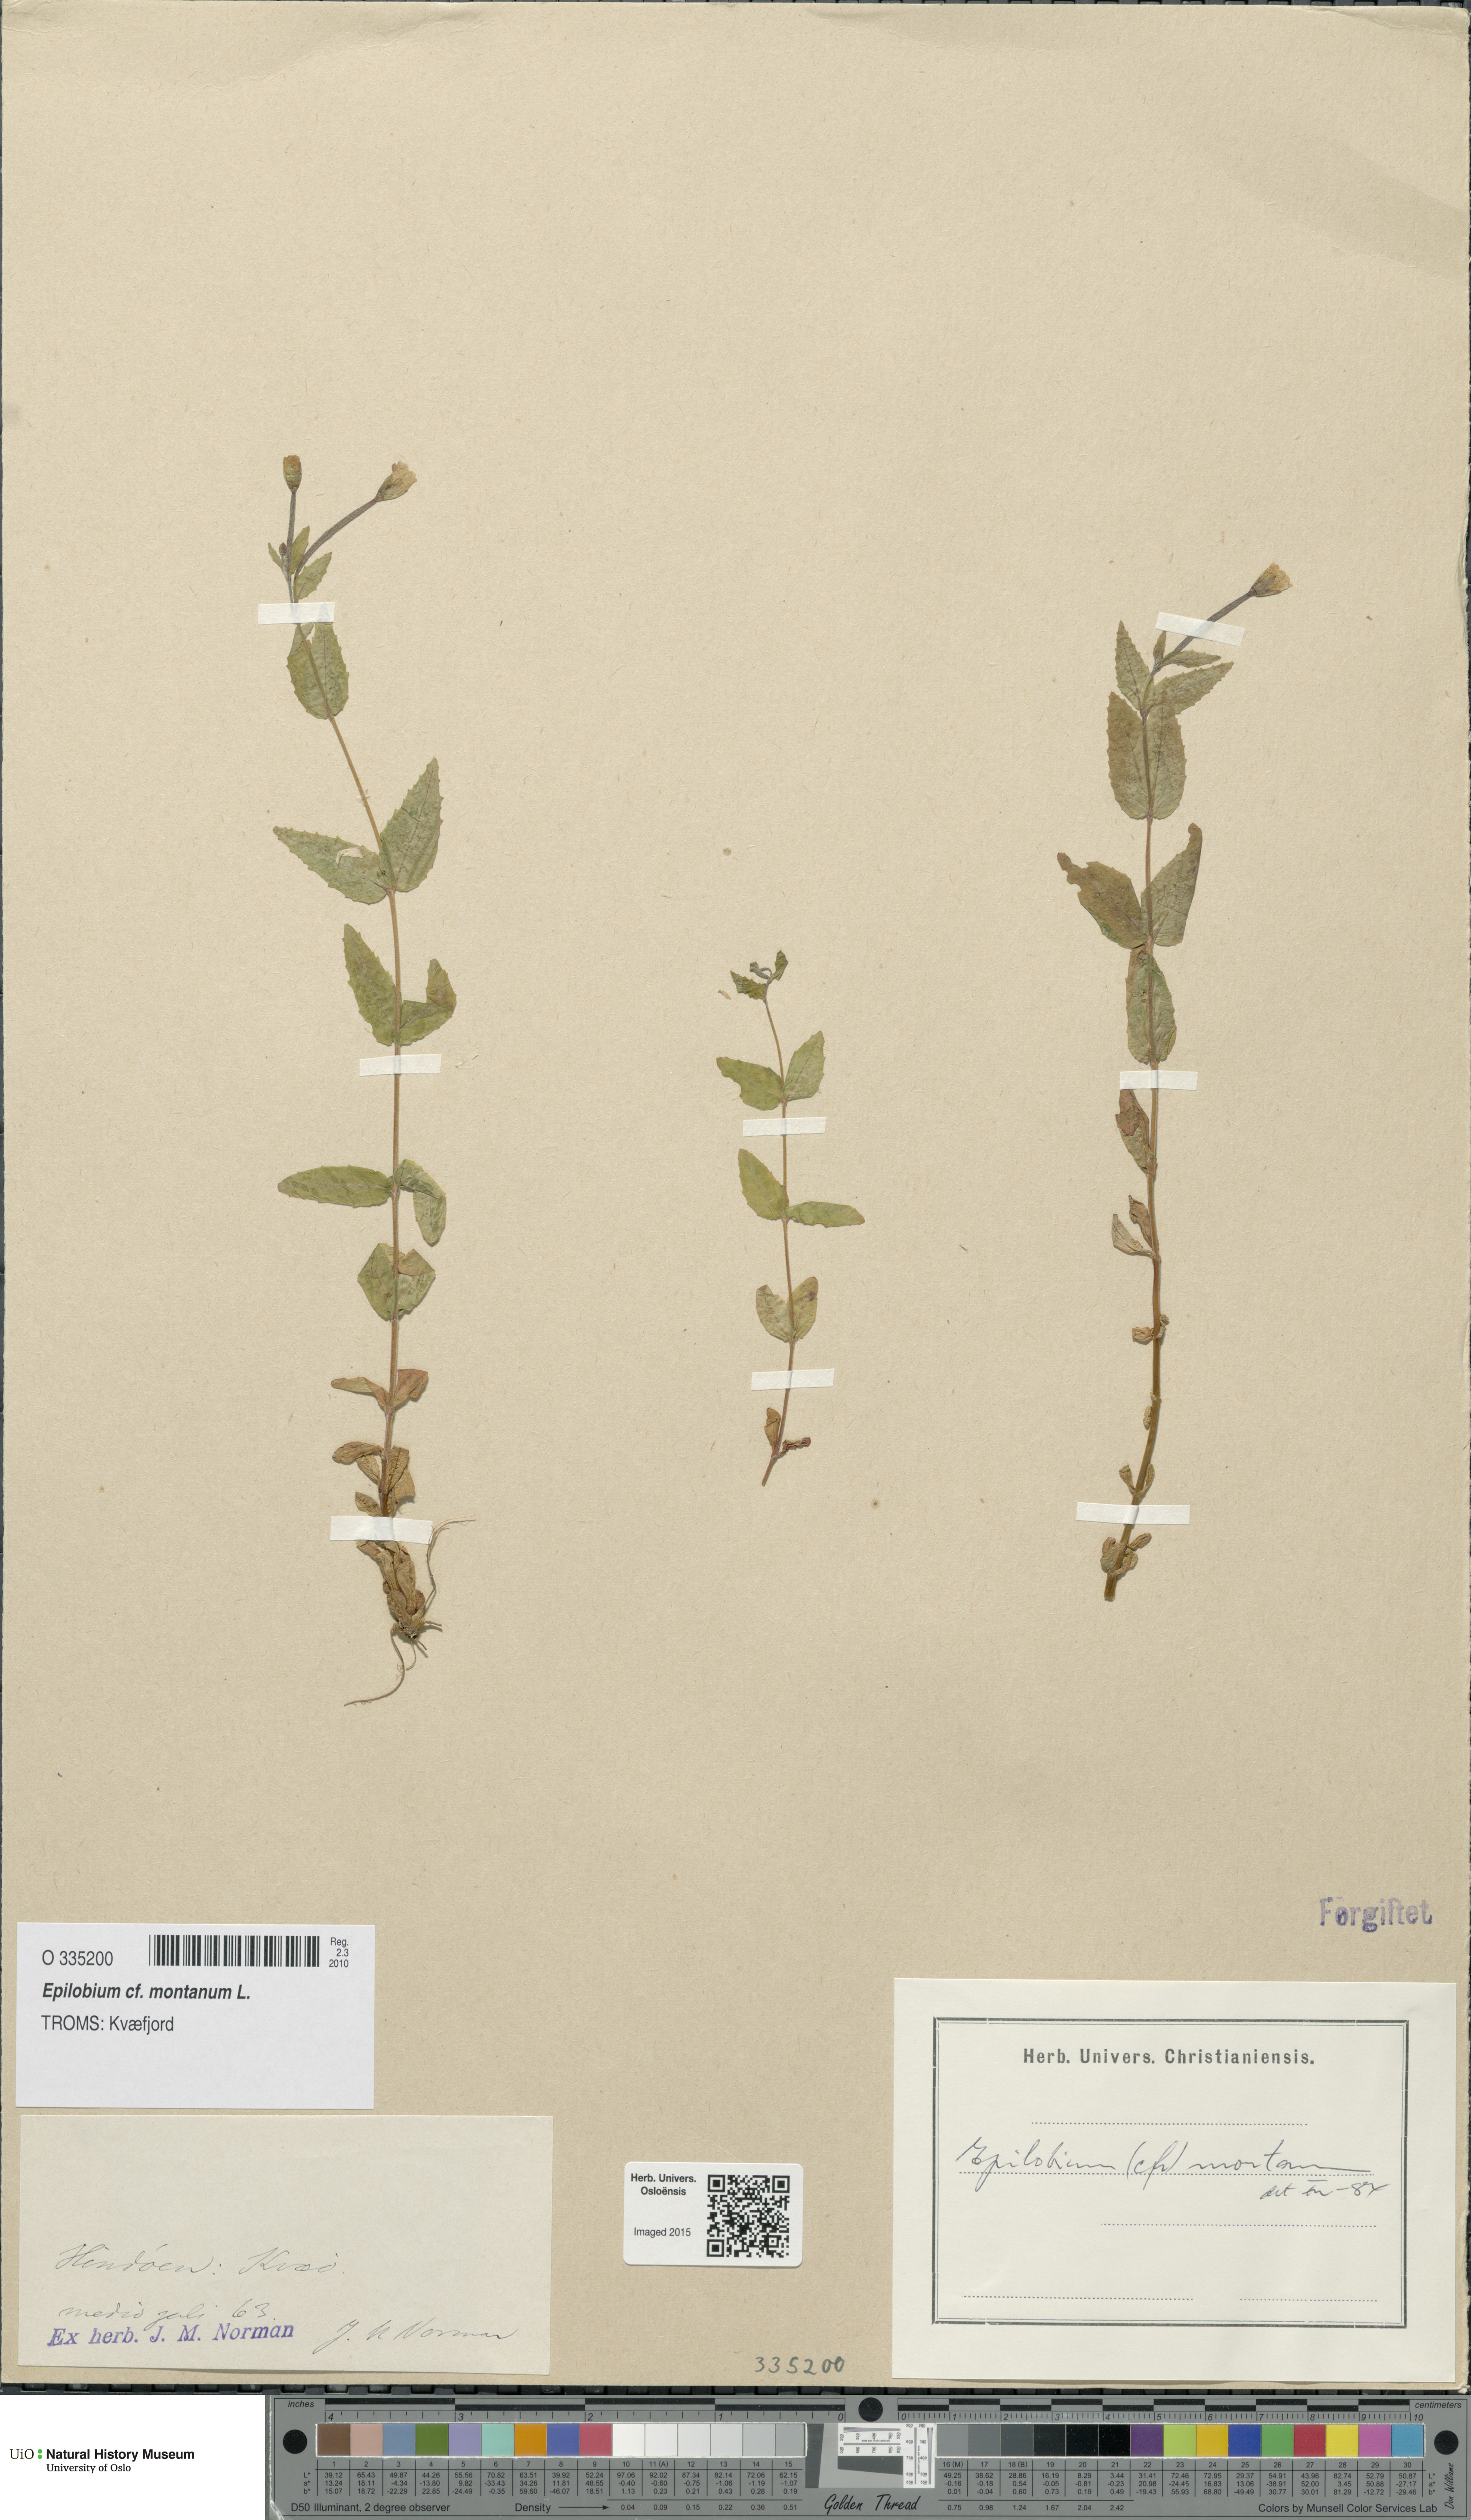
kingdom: Plantae
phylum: Tracheophyta
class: Magnoliopsida
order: Myrtales
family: Onagraceae
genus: Epilobium
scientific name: Epilobium montanum
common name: Broad-leaved willowherb
